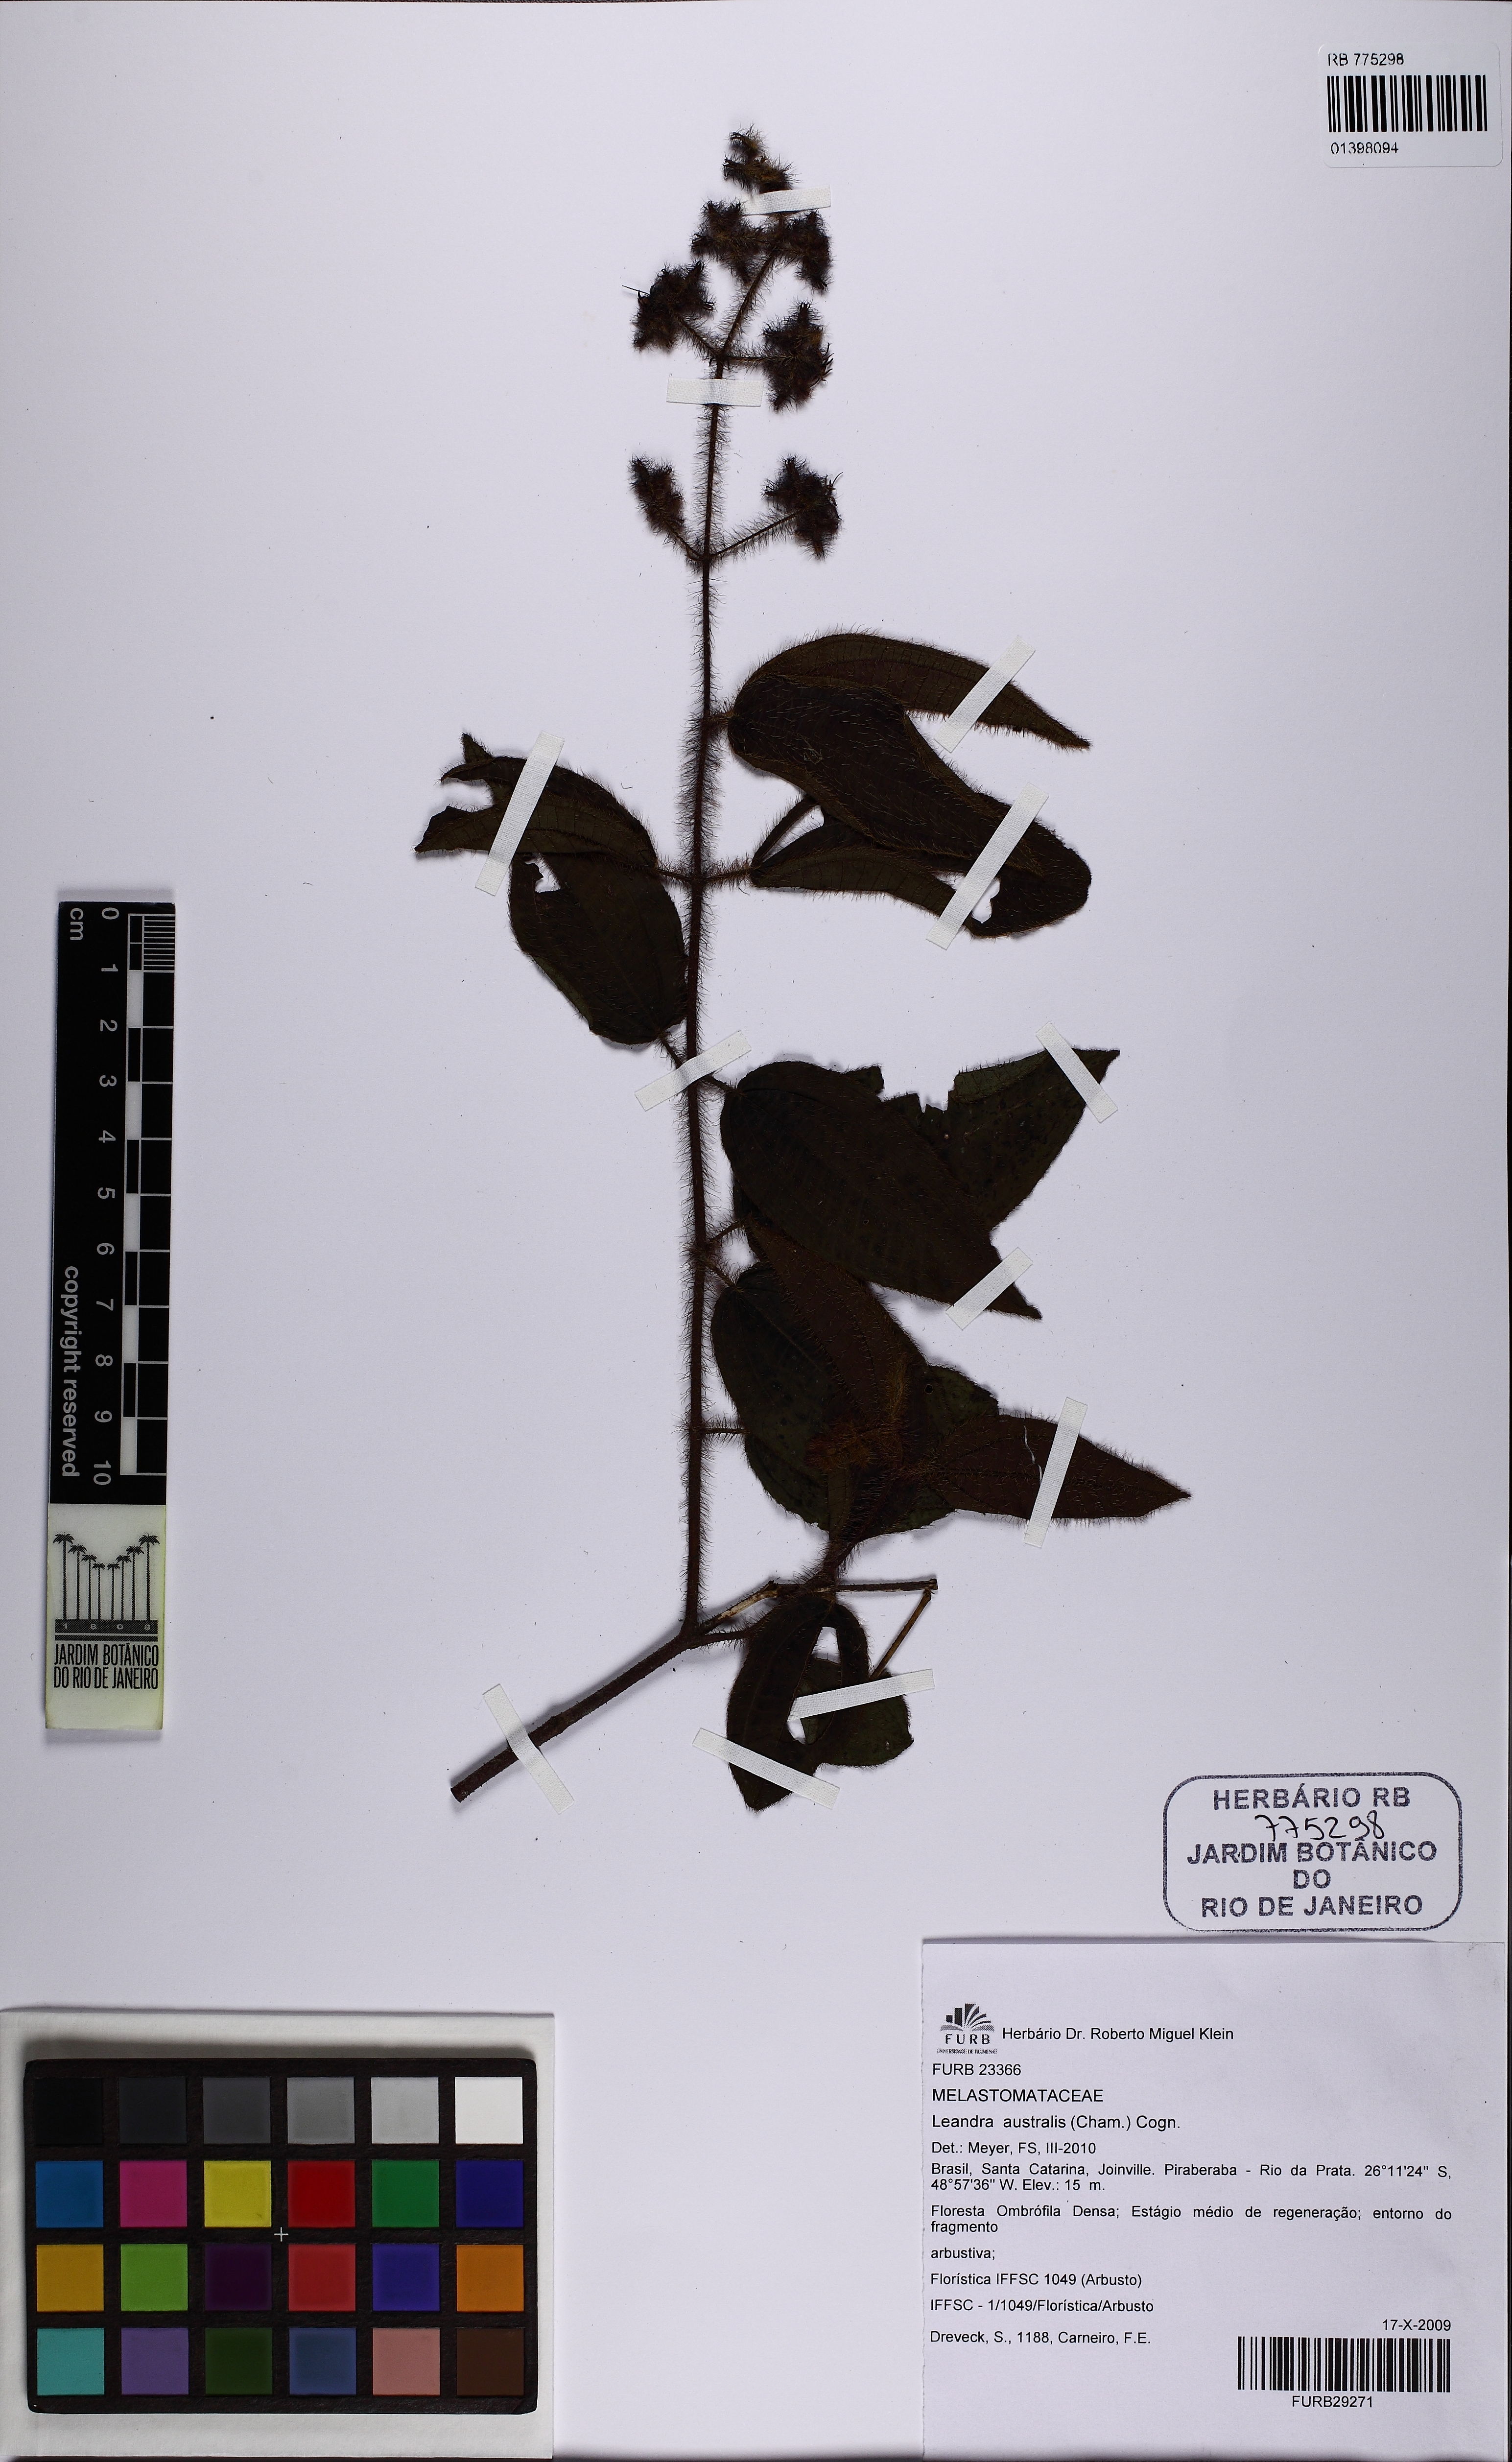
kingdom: Plantae
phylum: Tracheophyta
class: Magnoliopsida
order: Myrtales
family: Melastomataceae
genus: Miconia
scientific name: Miconia australis
